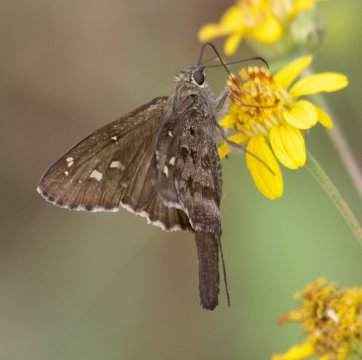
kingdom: Animalia
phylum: Arthropoda
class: Insecta
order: Lepidoptera
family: Hesperiidae
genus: Urbanus
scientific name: Urbanus dorantes
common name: Dorantes Longtail
